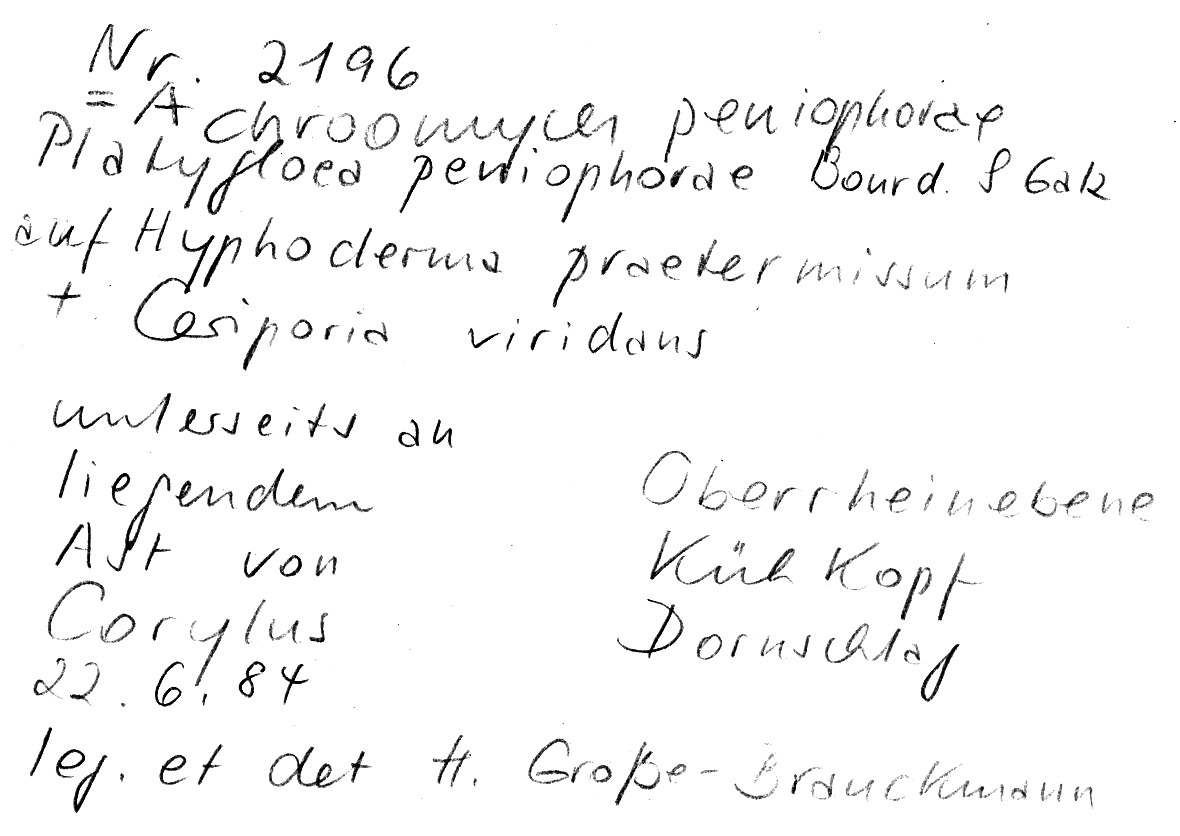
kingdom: Fungi
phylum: Basidiomycota
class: Microbotryomycetes
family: Colacogloeaceae
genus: Colacogloea
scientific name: Colacogloea peniophorae
